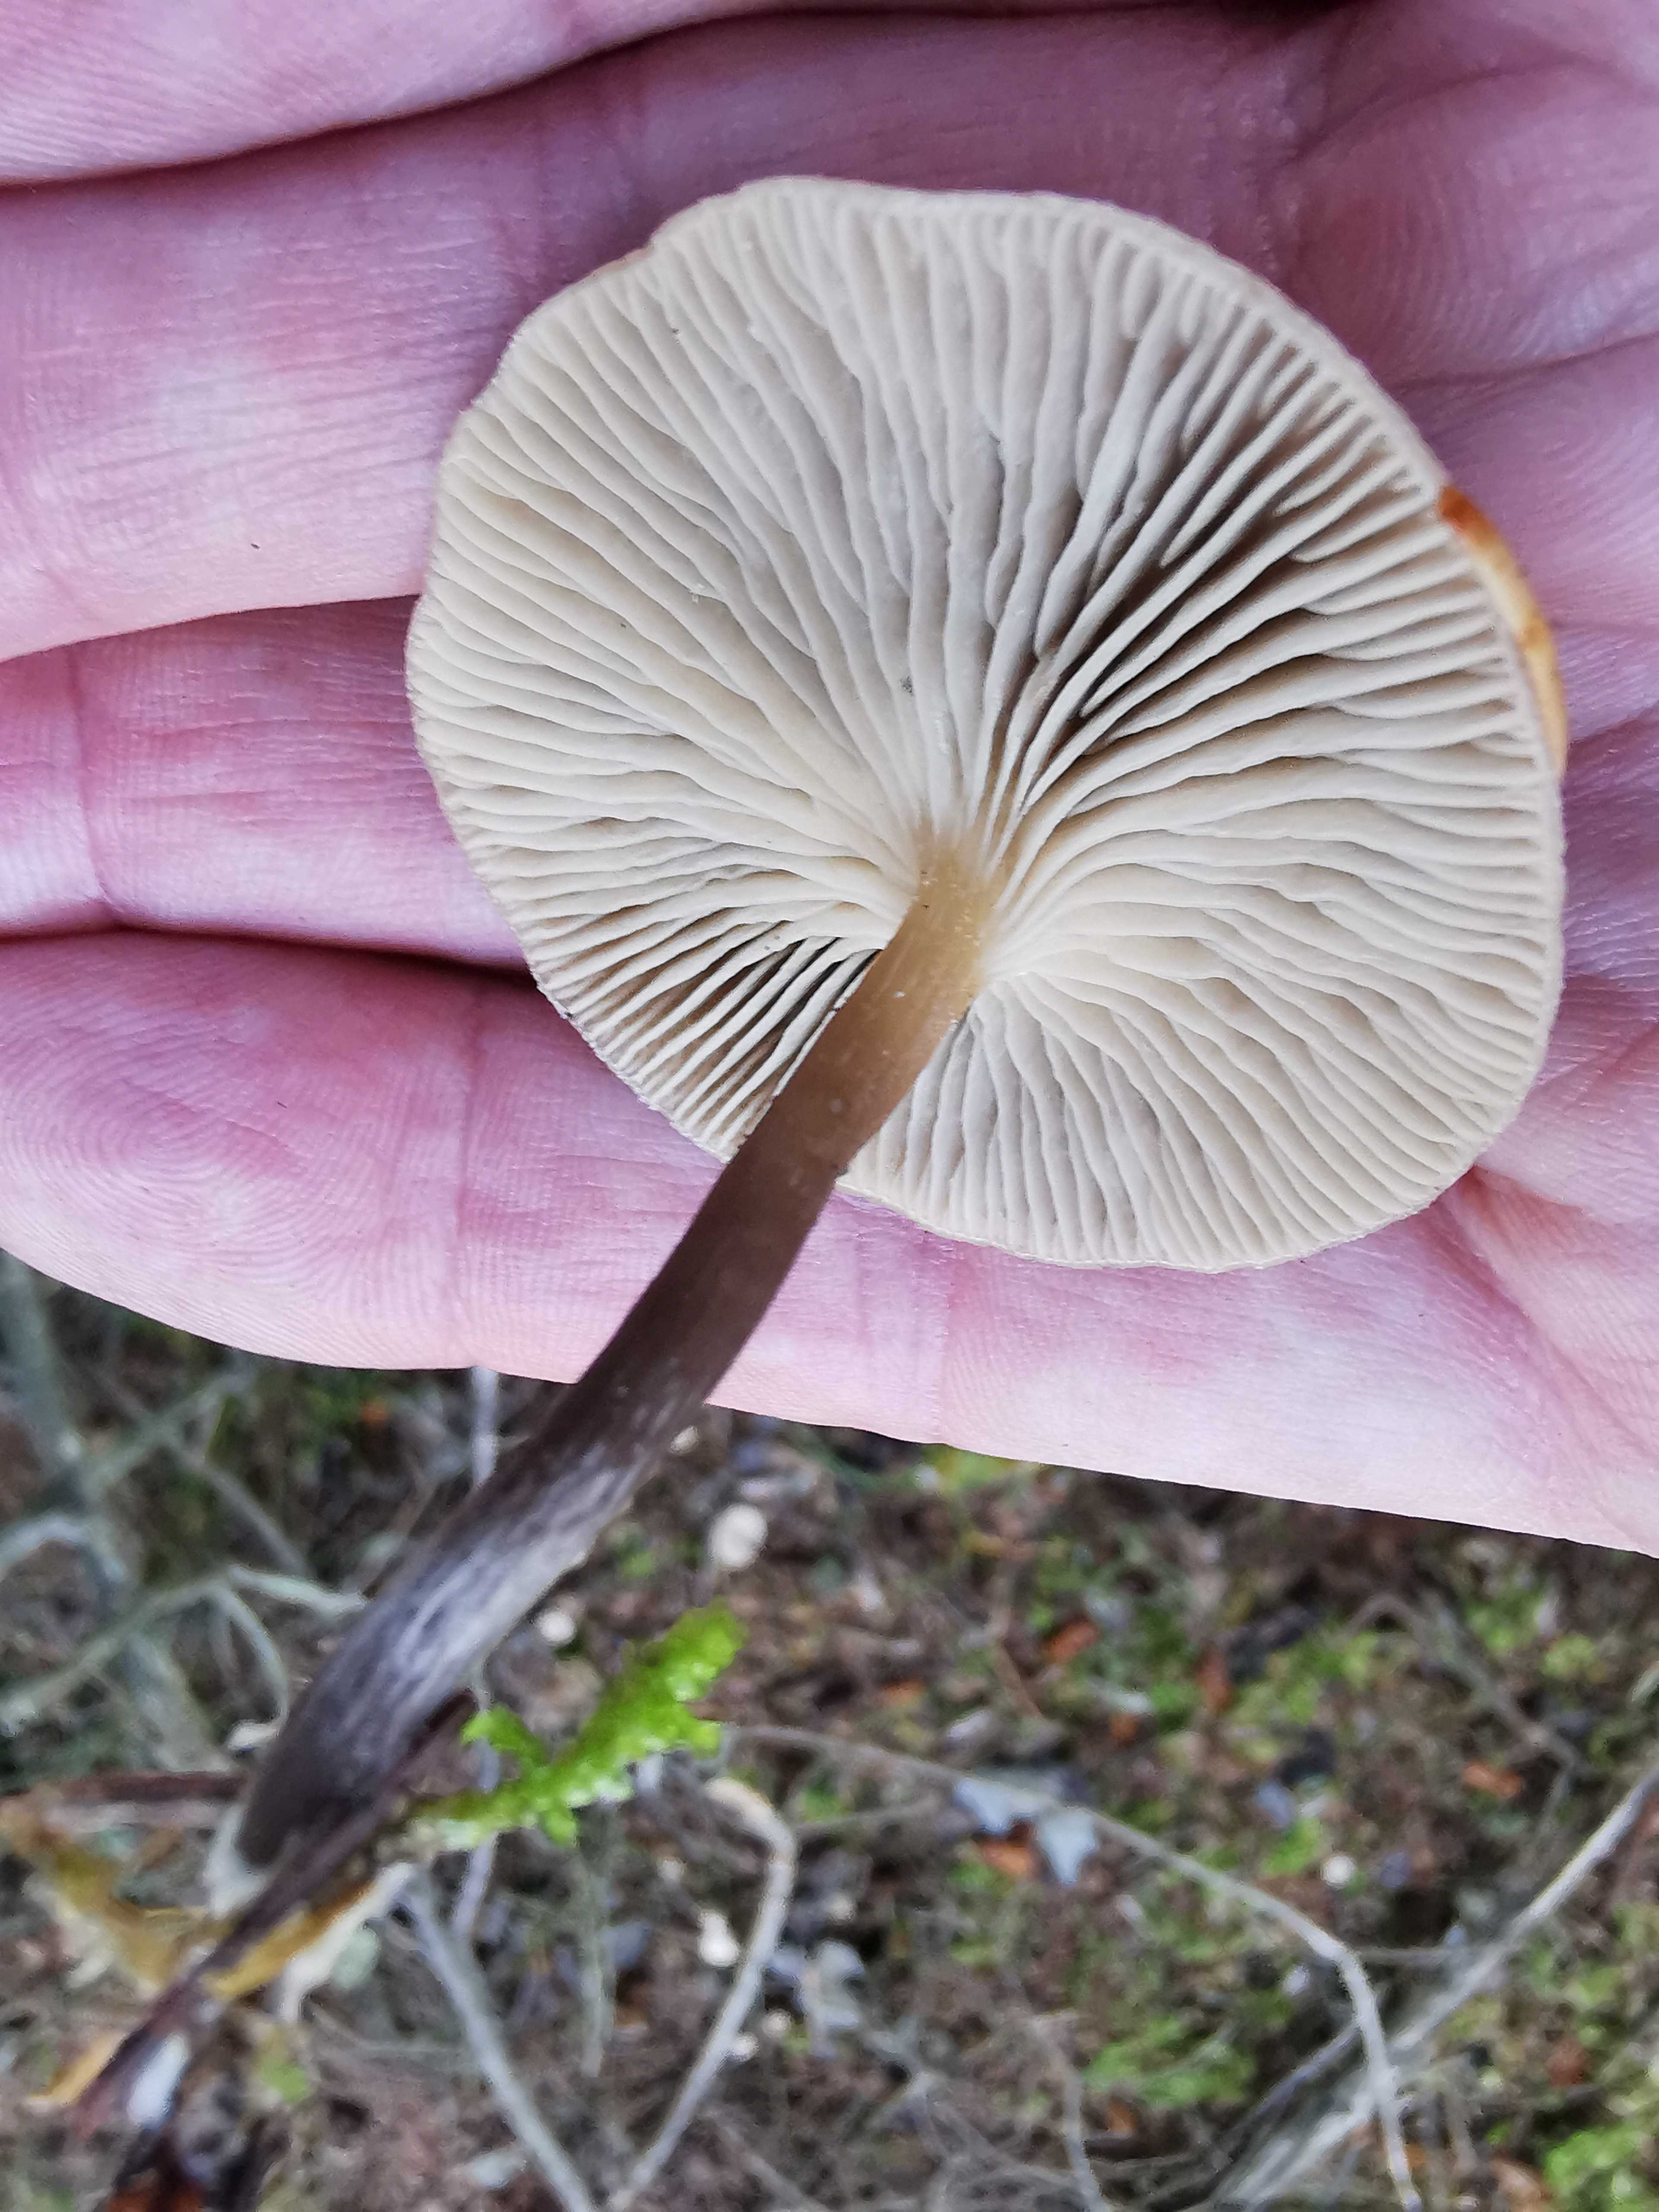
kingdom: Fungi
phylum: Basidiomycota
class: Agaricomycetes
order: Agaricales
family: Tricholomataceae
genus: Clitocybe
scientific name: Clitocybe metachroa
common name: grå tragthat
